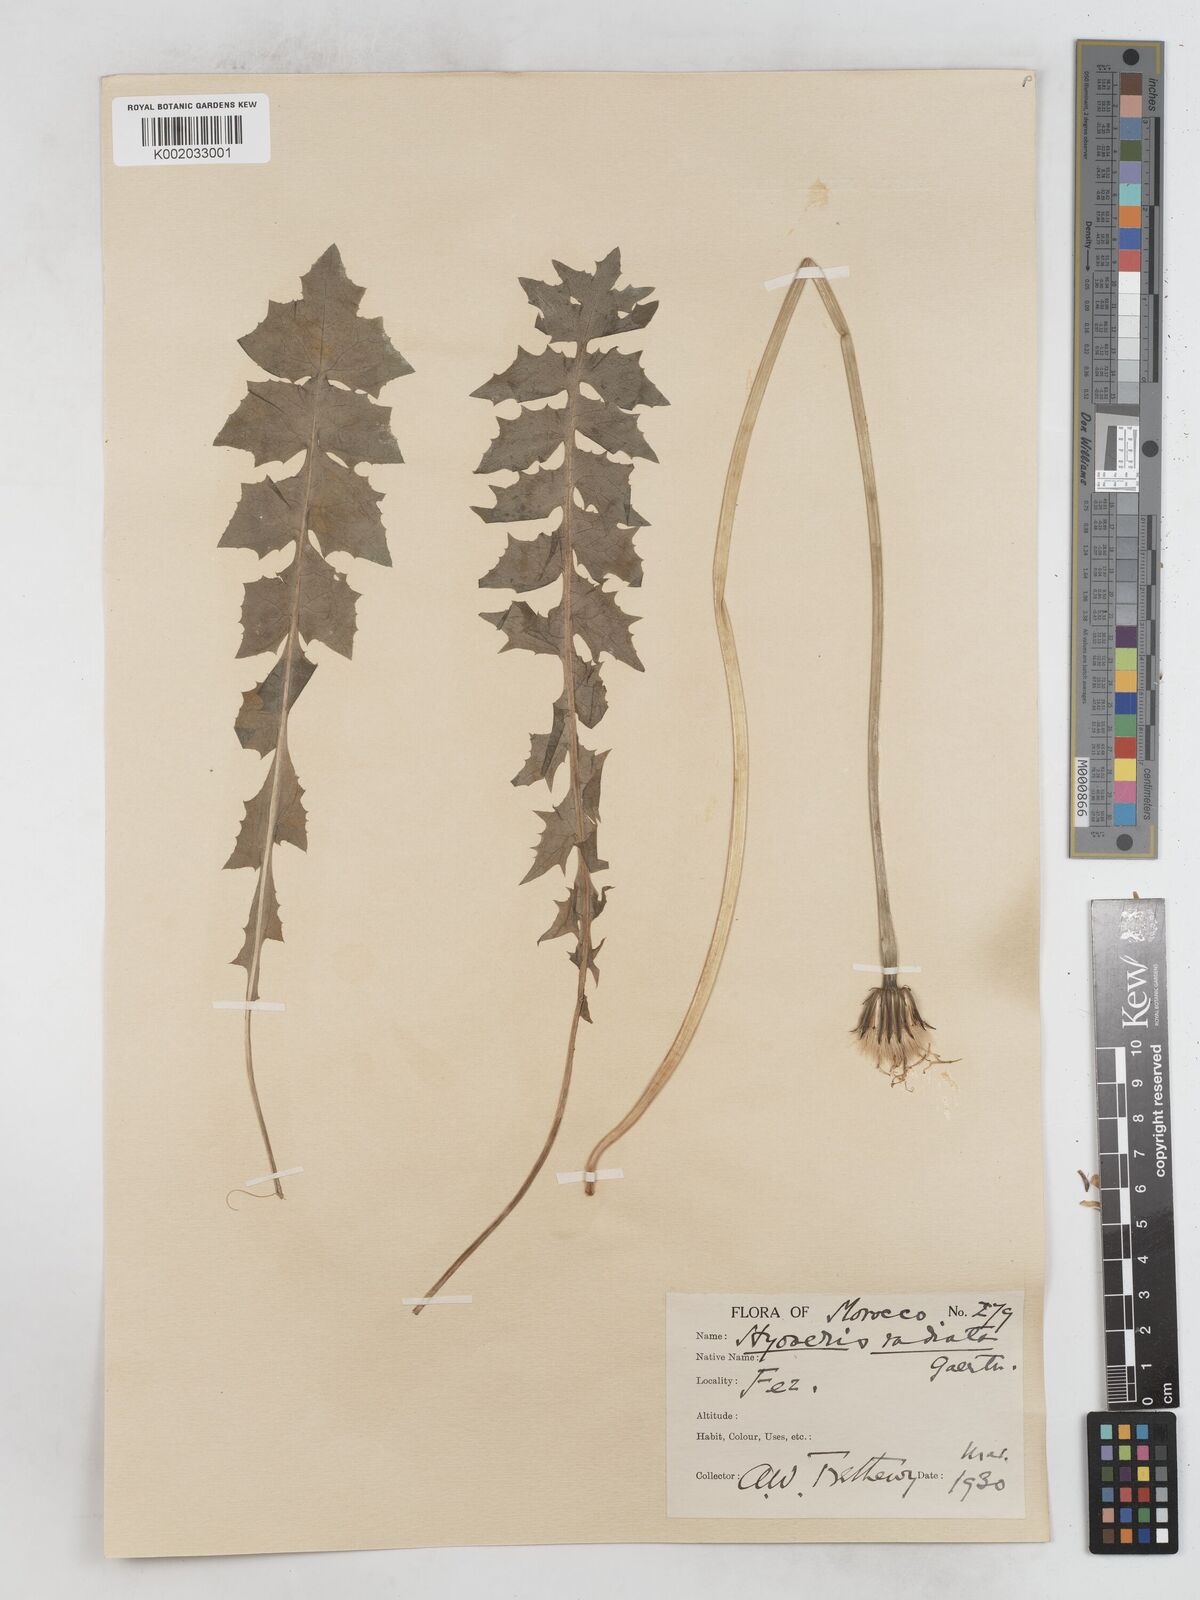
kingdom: Plantae
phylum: Tracheophyta
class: Magnoliopsida
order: Asterales
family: Asteraceae
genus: Hyoseris
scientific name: Hyoseris radiata
